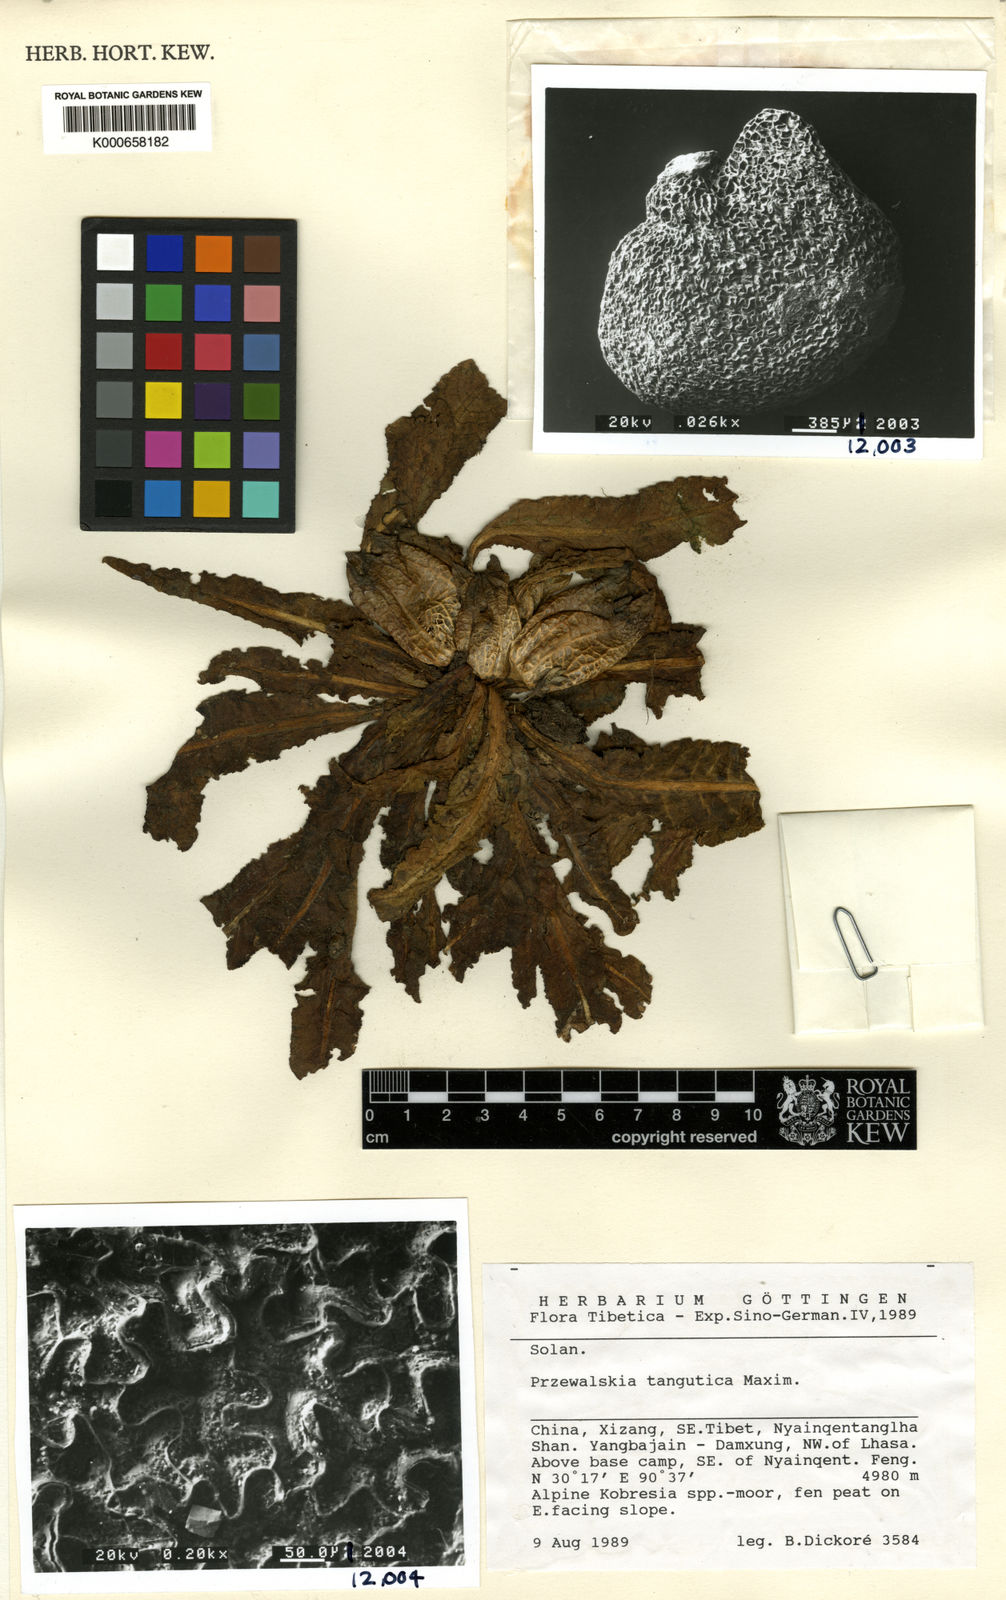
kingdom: Plantae
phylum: Tracheophyta
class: Magnoliopsida
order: Solanales
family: Solanaceae
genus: Przewalskia
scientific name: Przewalskia tangutica
